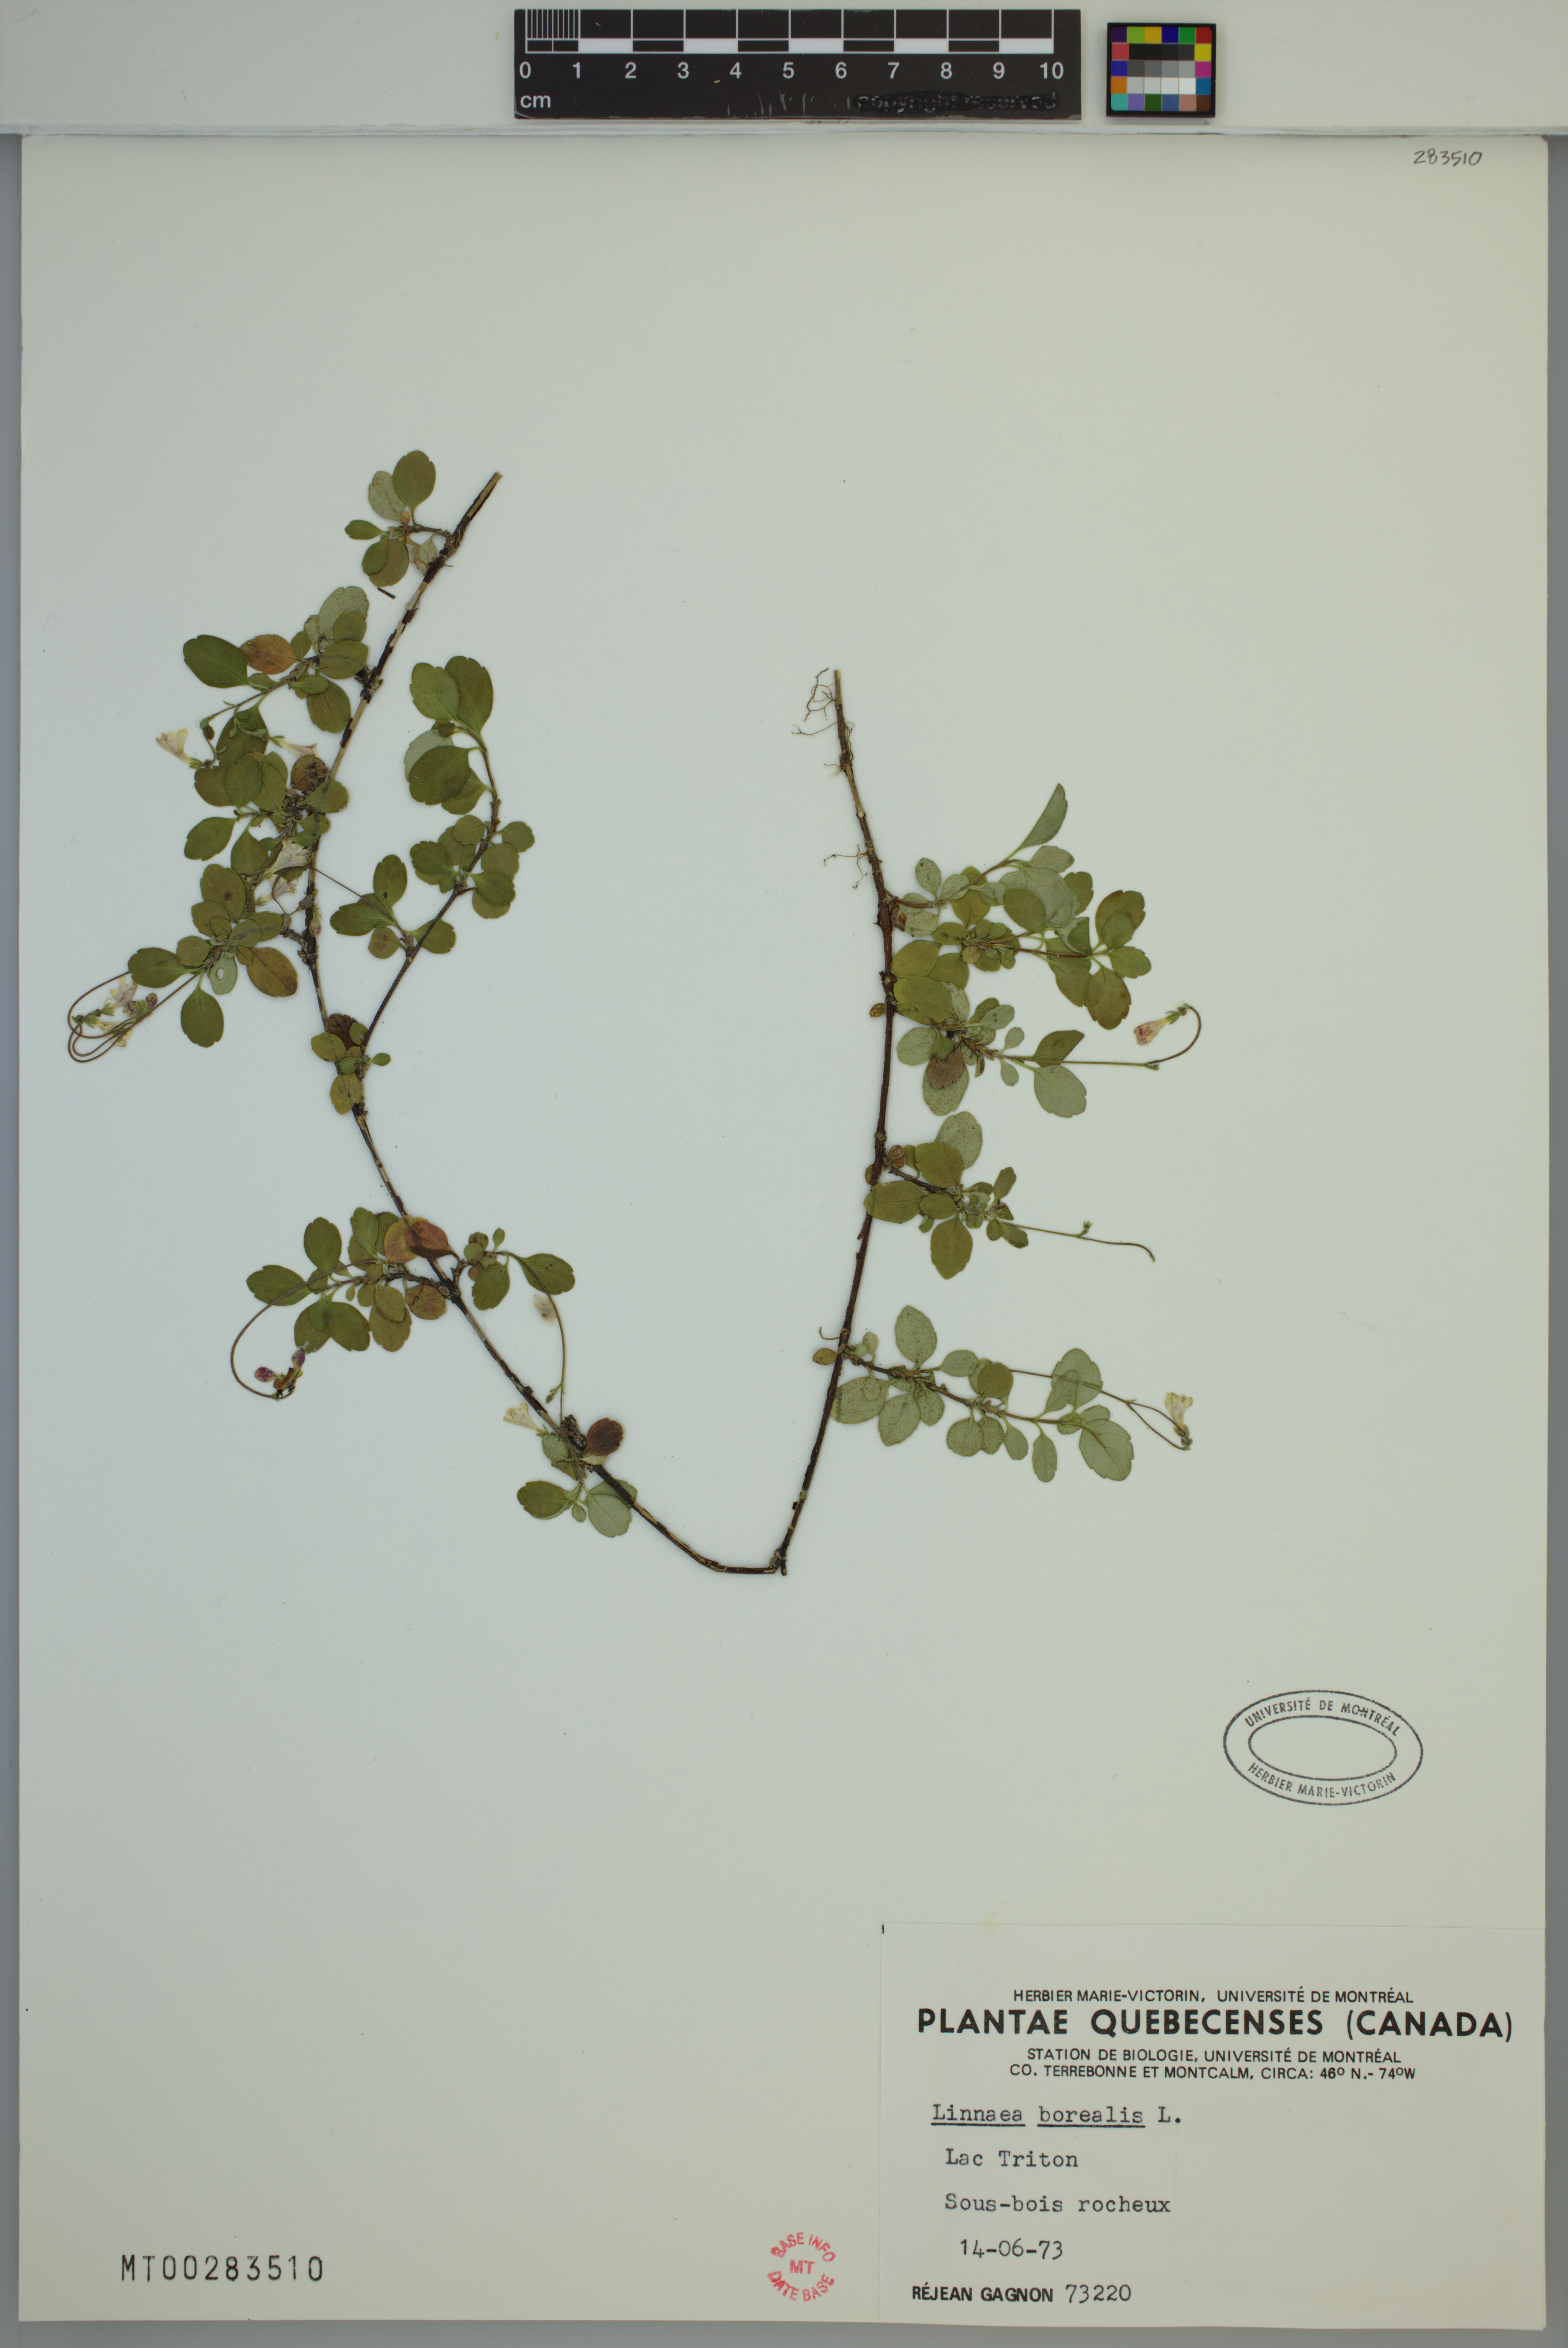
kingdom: Plantae
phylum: Tracheophyta
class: Magnoliopsida
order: Dipsacales
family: Caprifoliaceae
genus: Linnaea
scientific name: Linnaea borealis
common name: Twinflower
